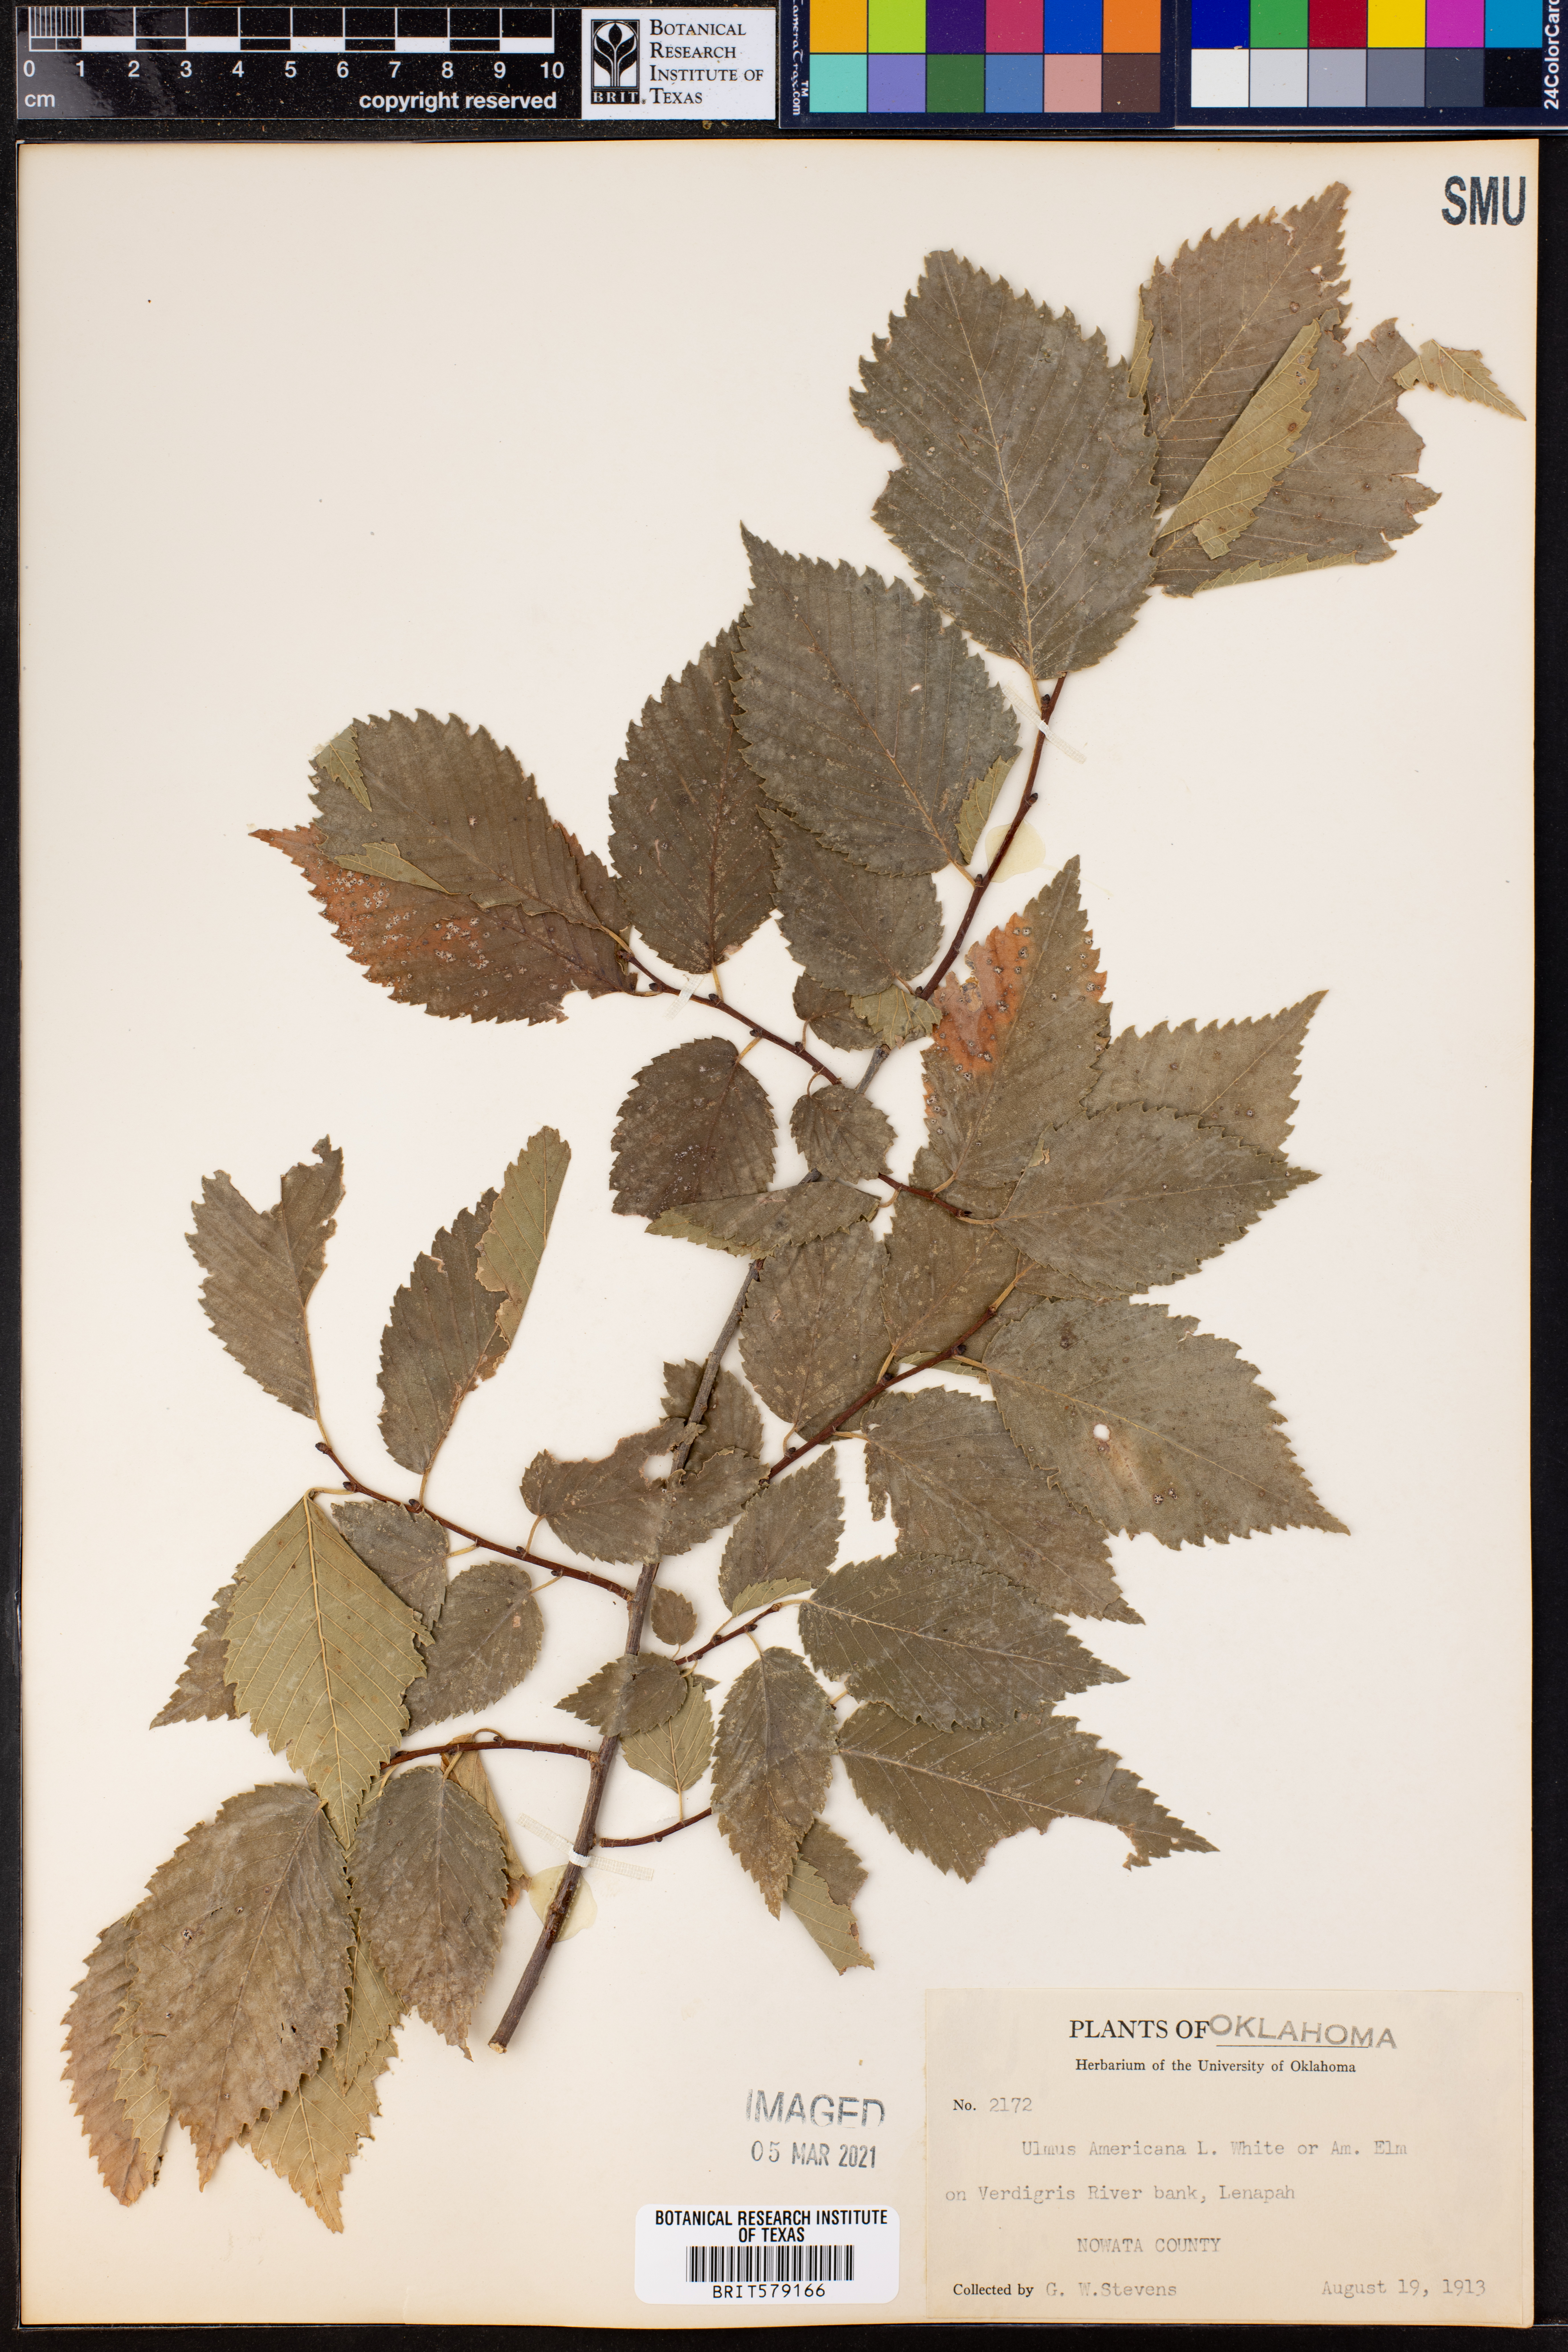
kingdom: Plantae
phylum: Tracheophyta
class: Magnoliopsida
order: Rosales
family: Ulmaceae
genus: Ulmus
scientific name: Ulmus americana
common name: American elm
